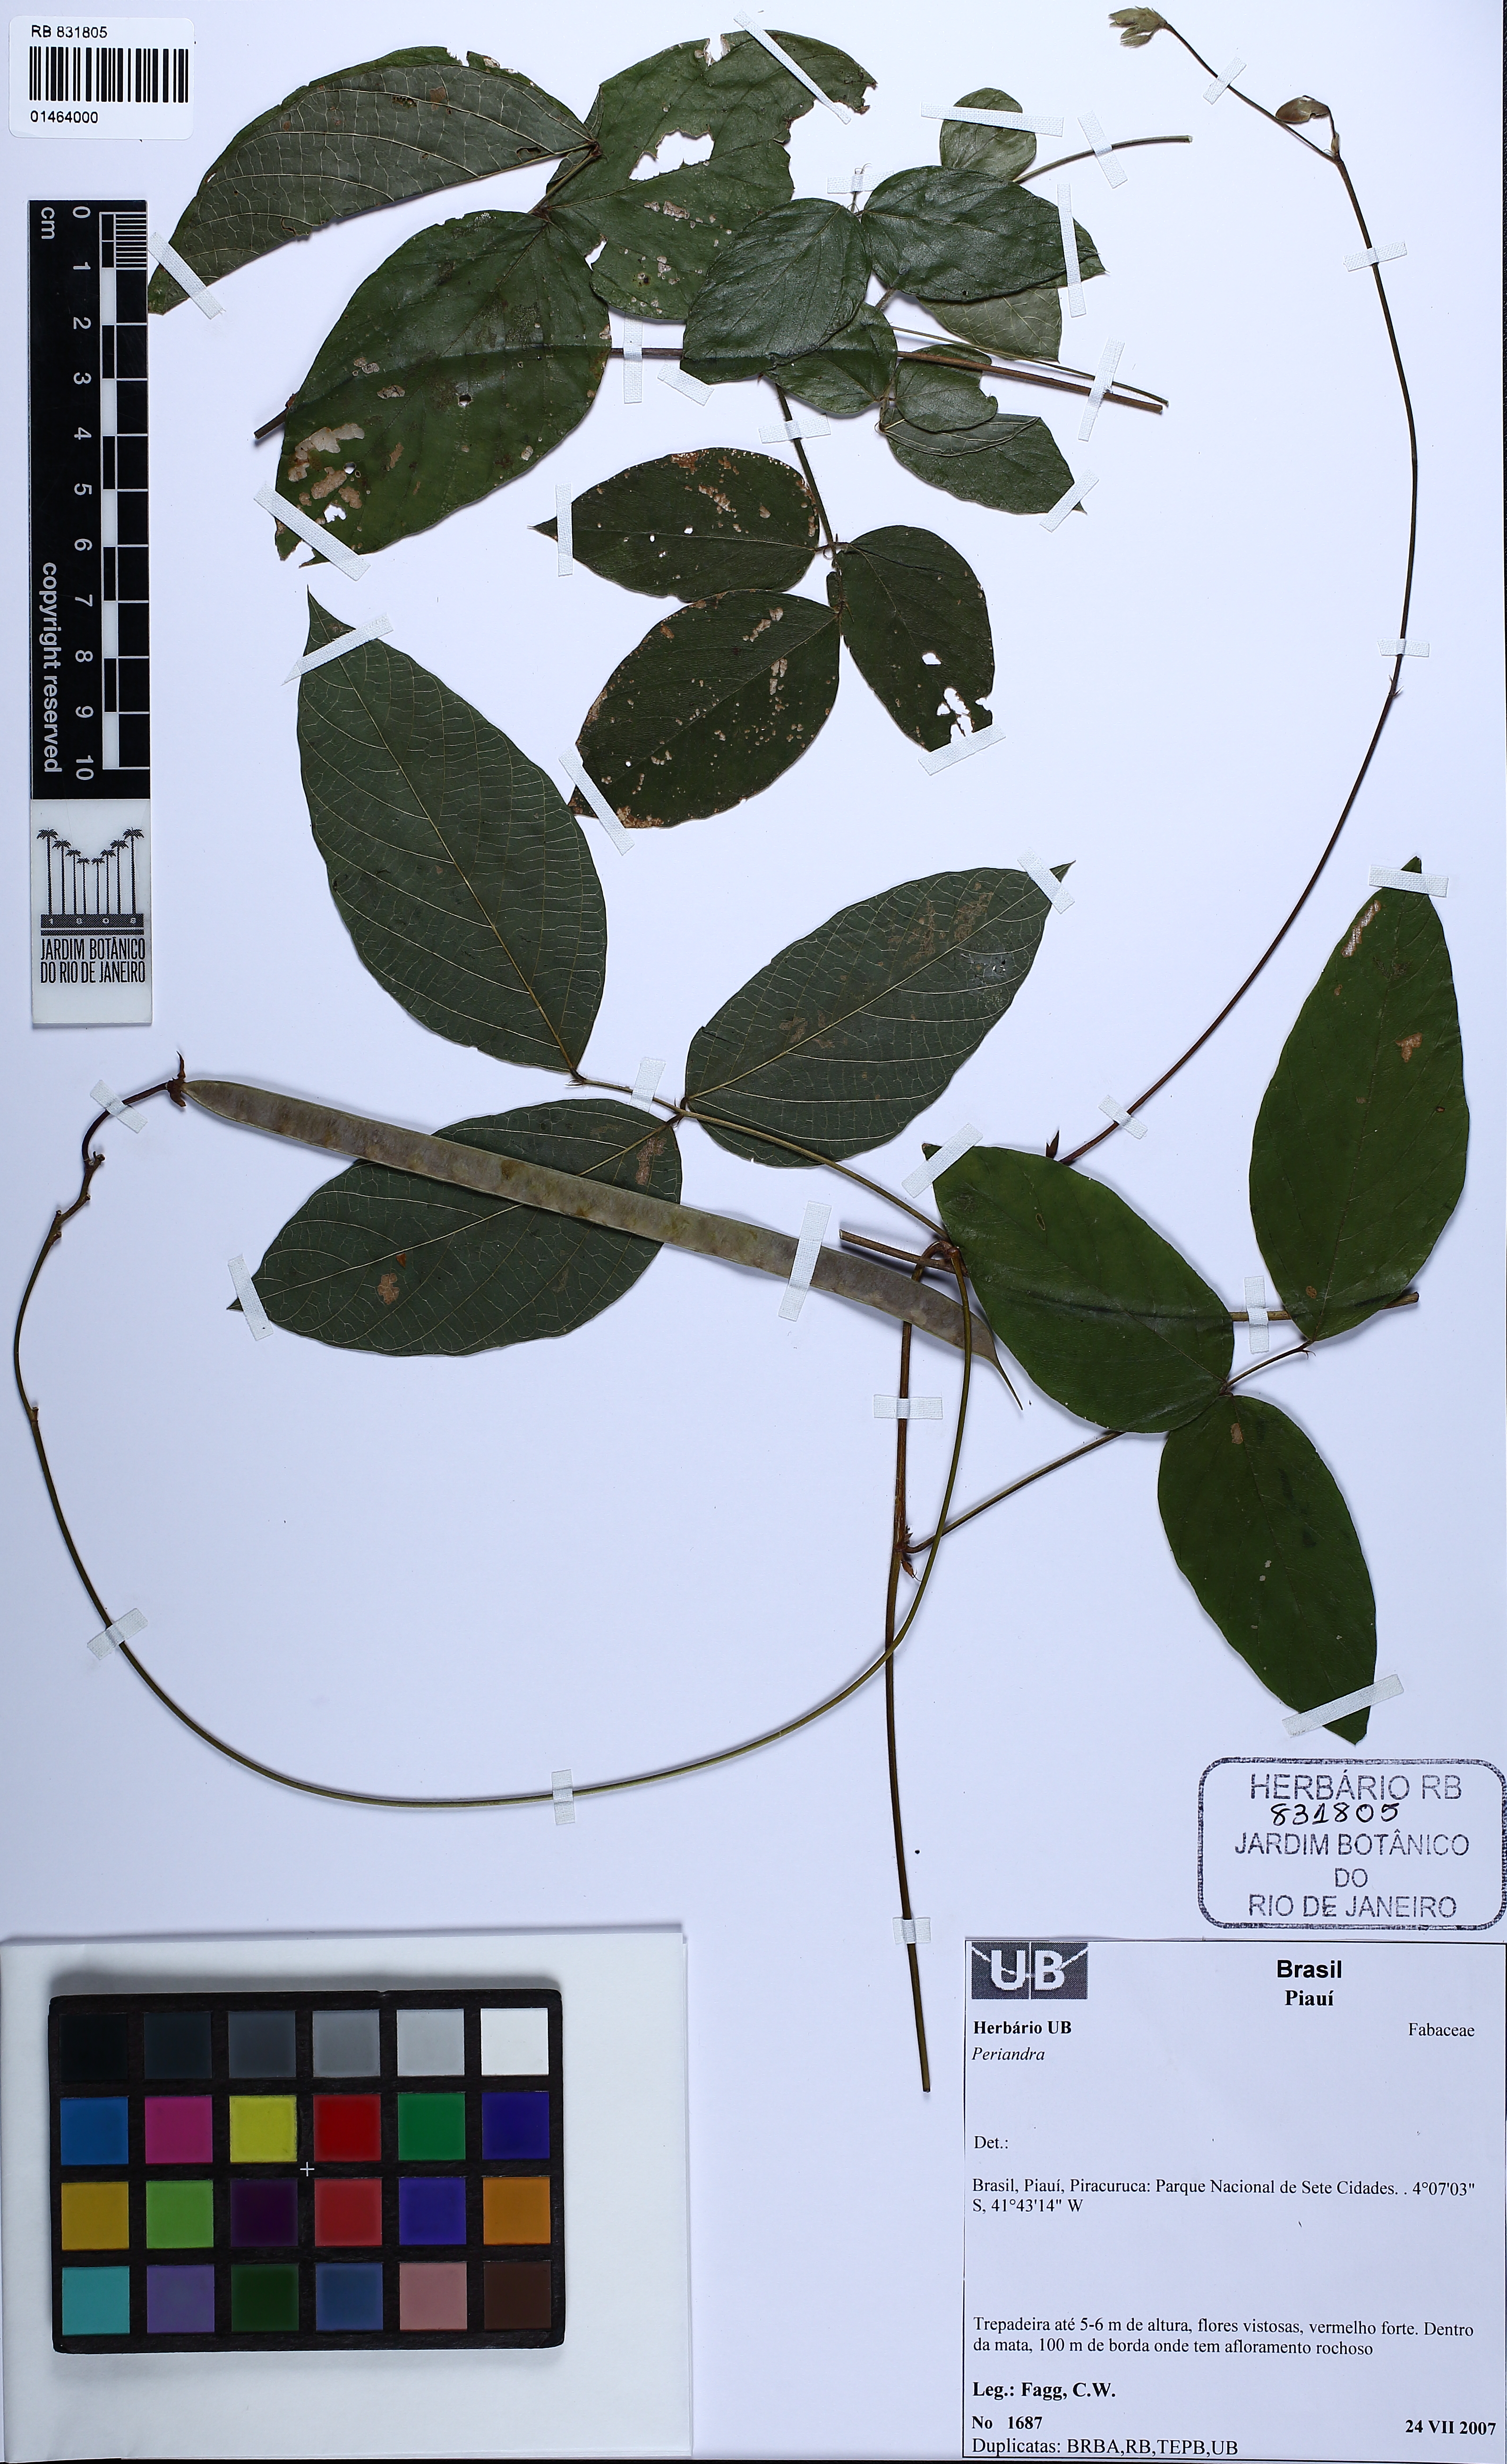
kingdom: Plantae
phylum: Tracheophyta
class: Magnoliopsida
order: Fabales
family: Fabaceae
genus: Periandra
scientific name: Periandra
